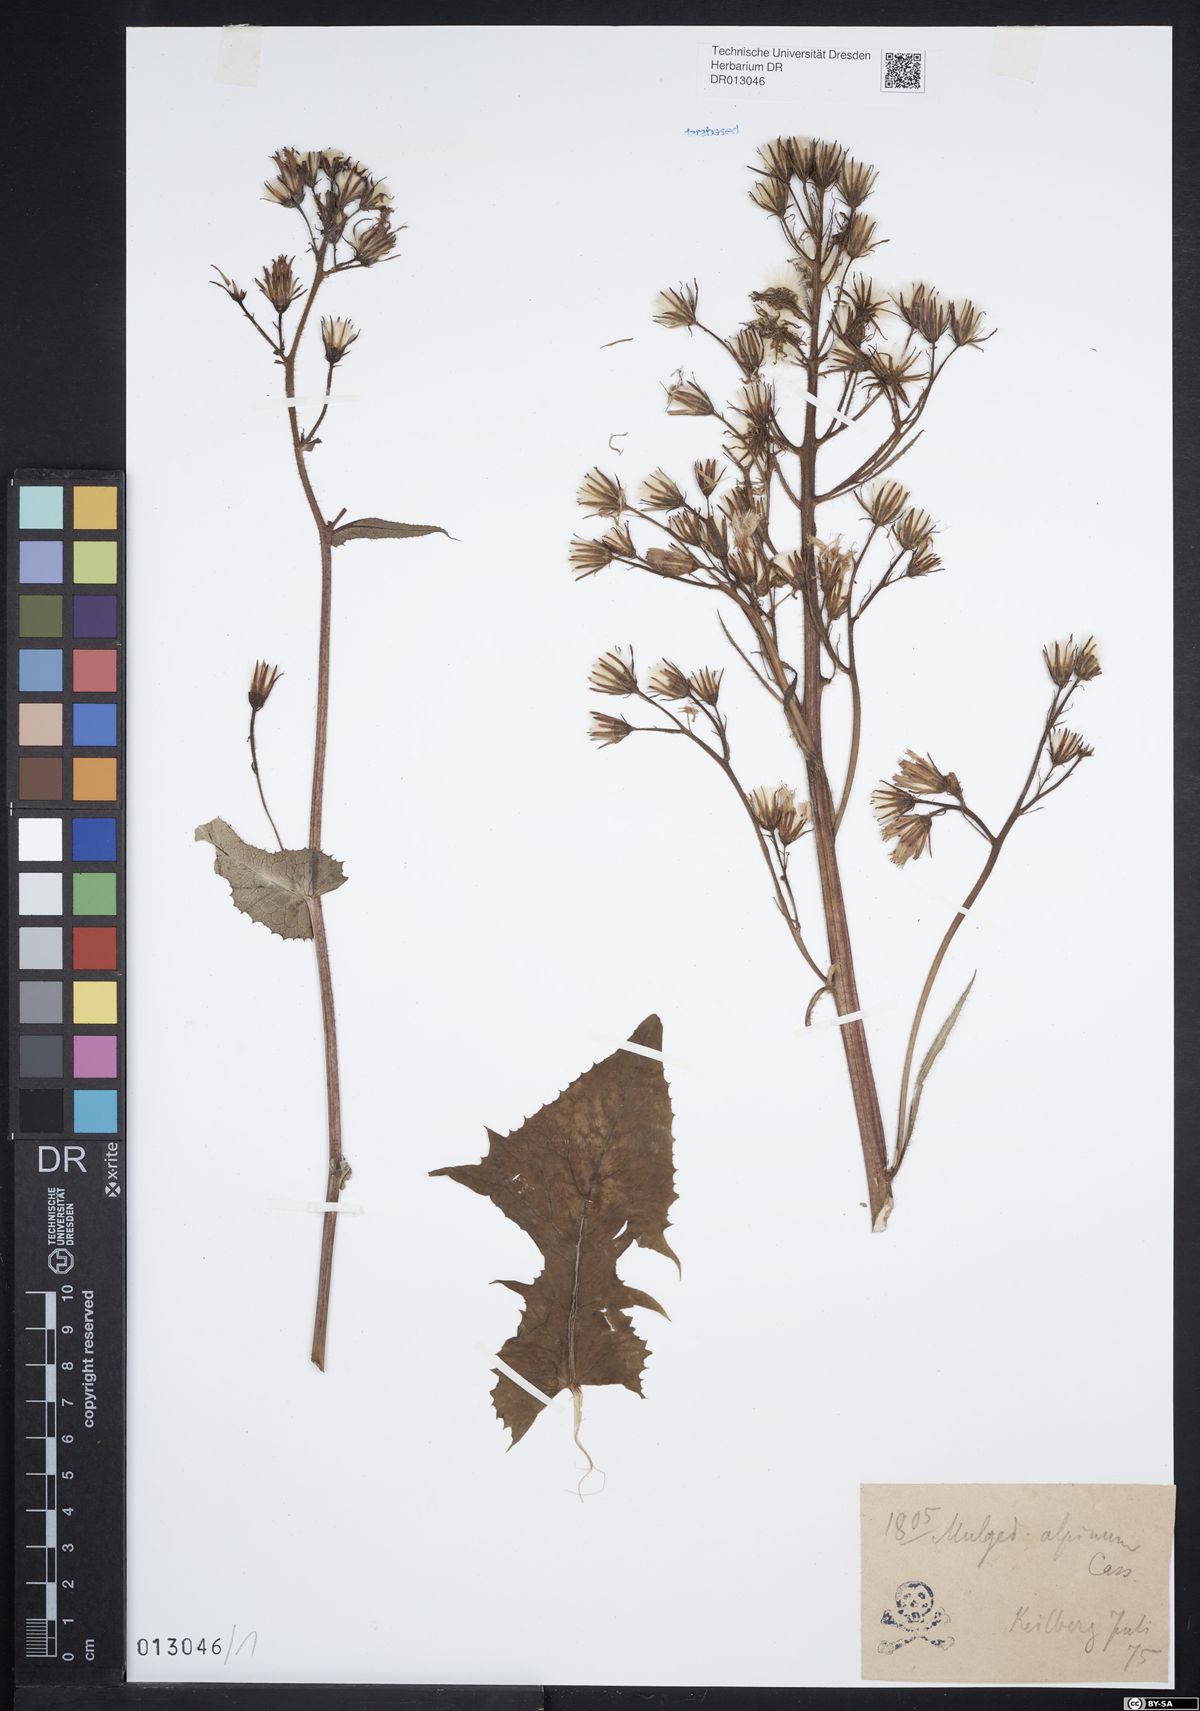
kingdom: Plantae
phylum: Tracheophyta
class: Magnoliopsida
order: Asterales
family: Asteraceae
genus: Cicerbita
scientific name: Cicerbita alpina
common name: Alpine blue-sow-thistle
